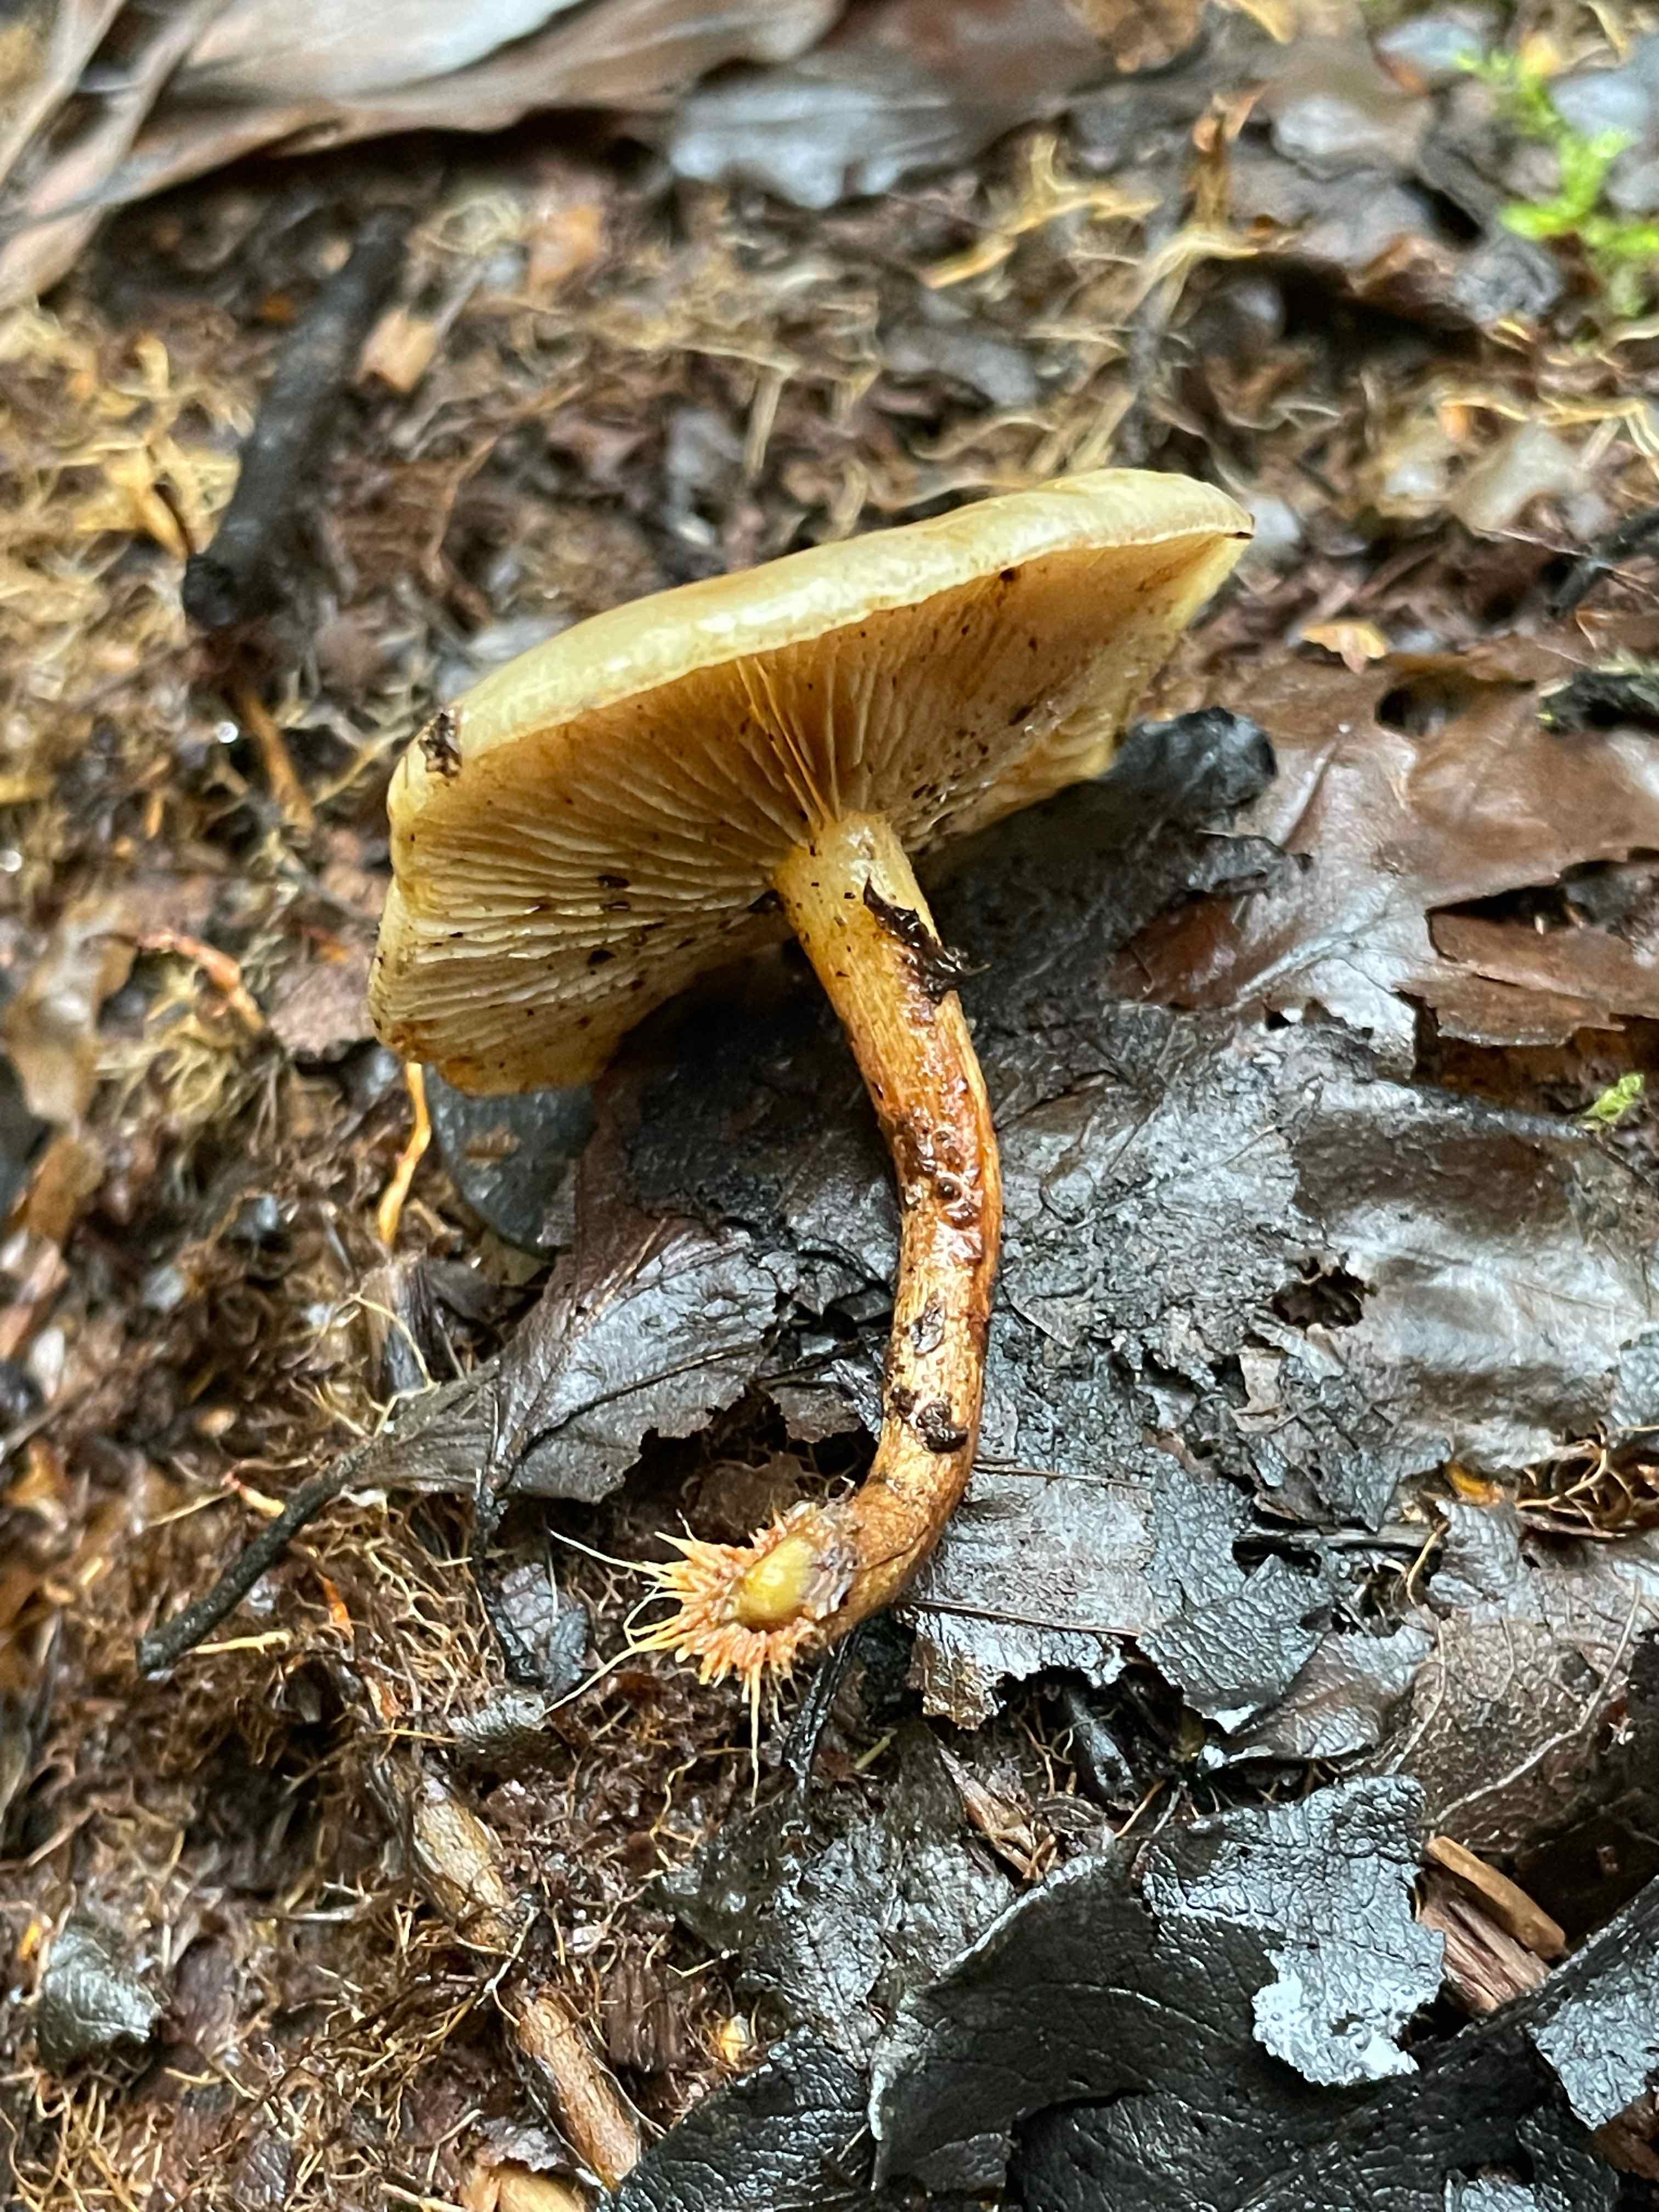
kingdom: Fungi
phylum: Basidiomycota
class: Agaricomycetes
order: Agaricales
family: Strophariaceae
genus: Pholiota
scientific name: Pholiota conissans
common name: pile-skælhat
